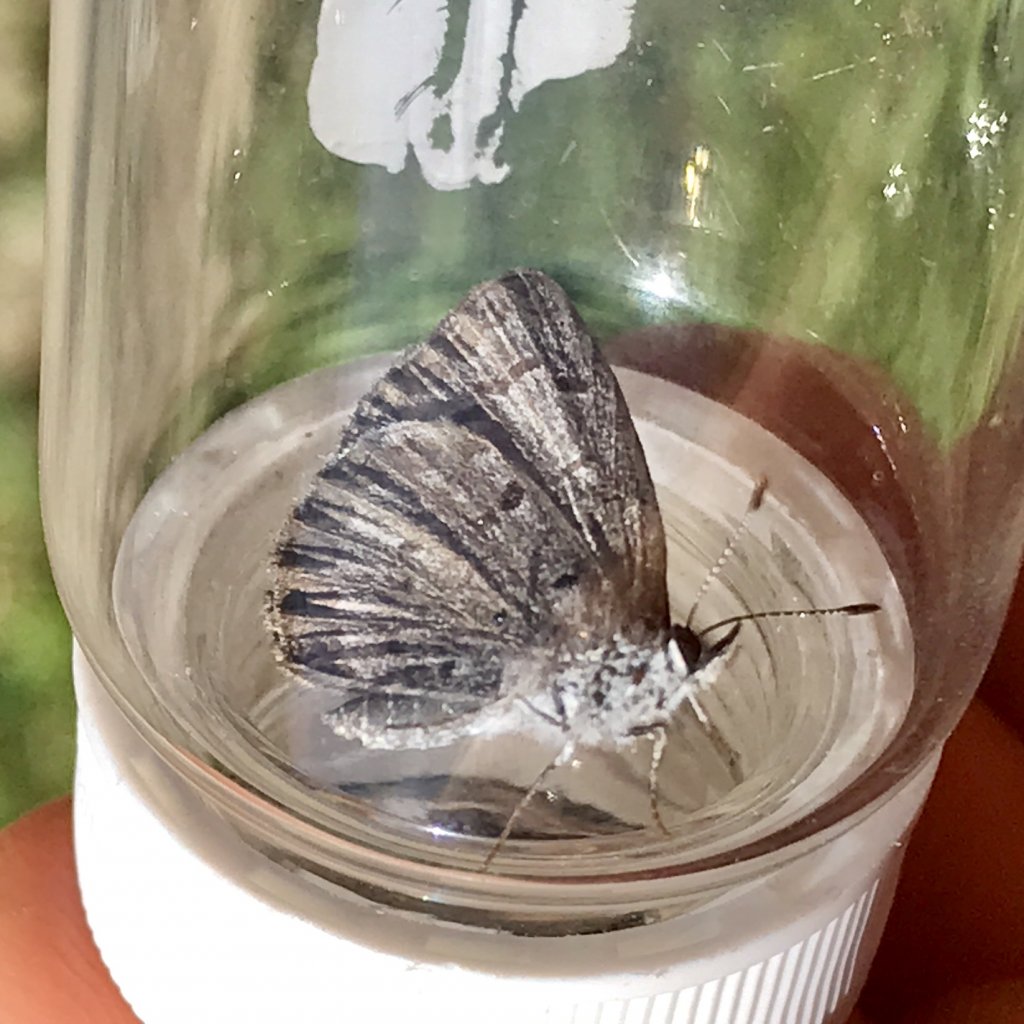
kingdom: Animalia
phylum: Arthropoda
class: Insecta
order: Lepidoptera
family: Lycaenidae
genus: Celastrina
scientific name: Celastrina lucia
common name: Northern Spring Azure
